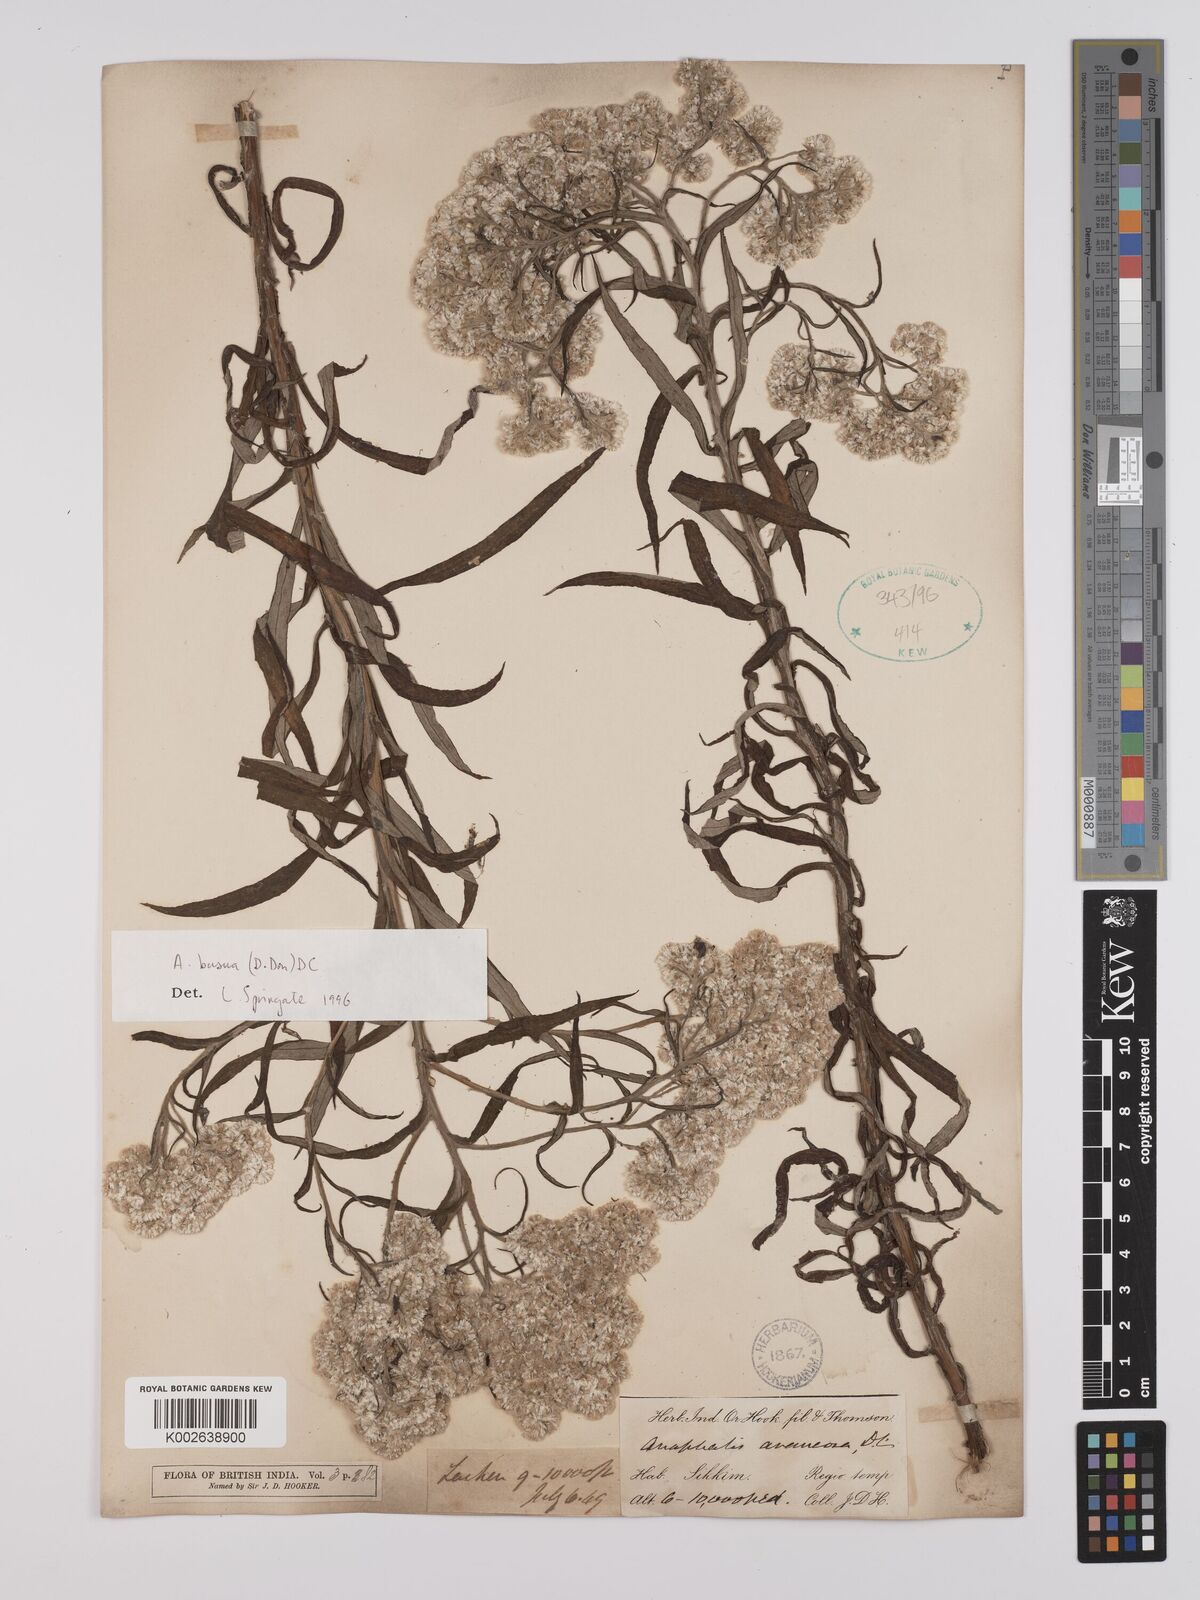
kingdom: Plantae
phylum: Tracheophyta
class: Magnoliopsida
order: Asterales
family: Asteraceae
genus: Anaphalis
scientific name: Anaphalis busua
